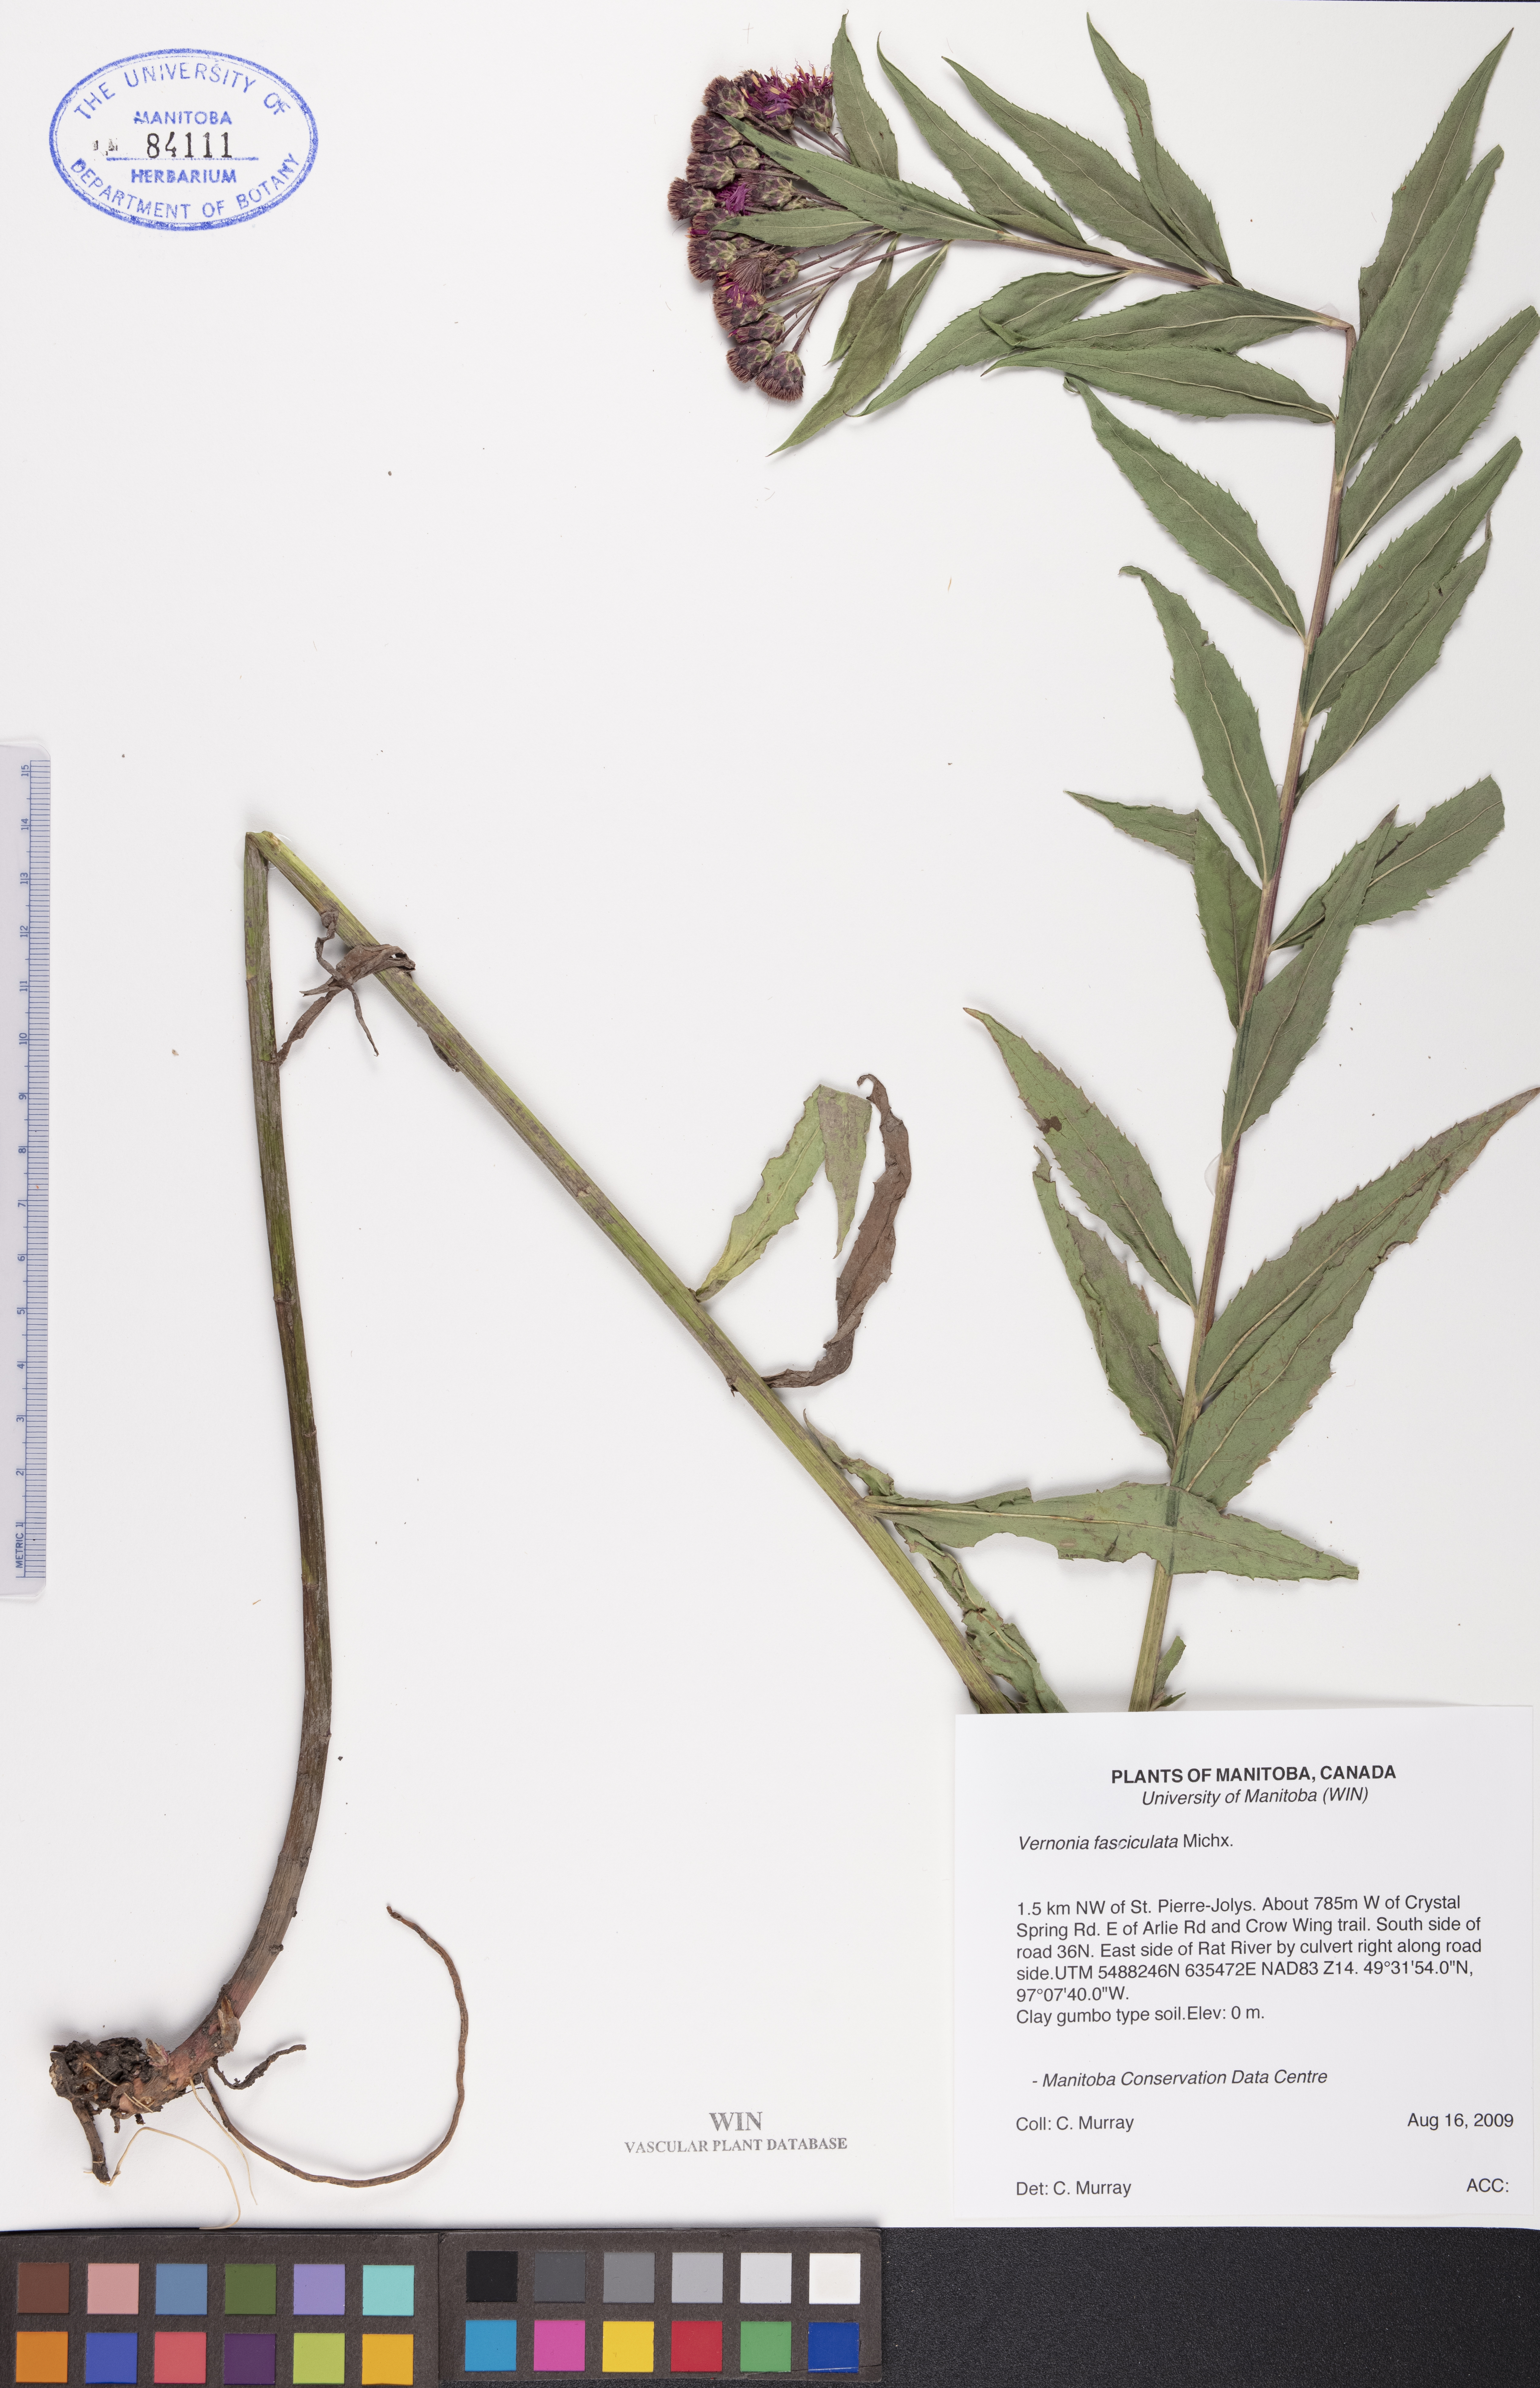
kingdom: Plantae
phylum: Tracheophyta
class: Magnoliopsida
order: Asterales
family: Asteraceae
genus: Vernonia
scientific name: Vernonia fasciculata
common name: Fascicled ironweed
